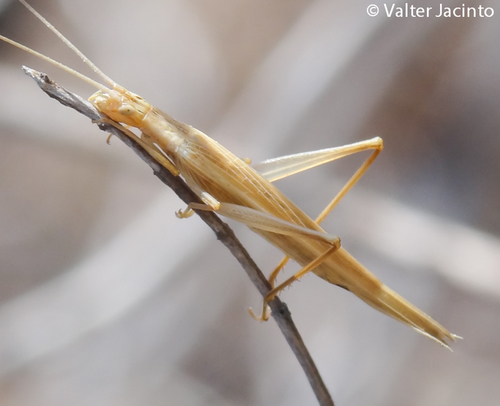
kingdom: Animalia
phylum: Arthropoda
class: Insecta
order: Orthoptera
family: Gryllidae
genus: Oecanthus
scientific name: Oecanthus dulcisonans
